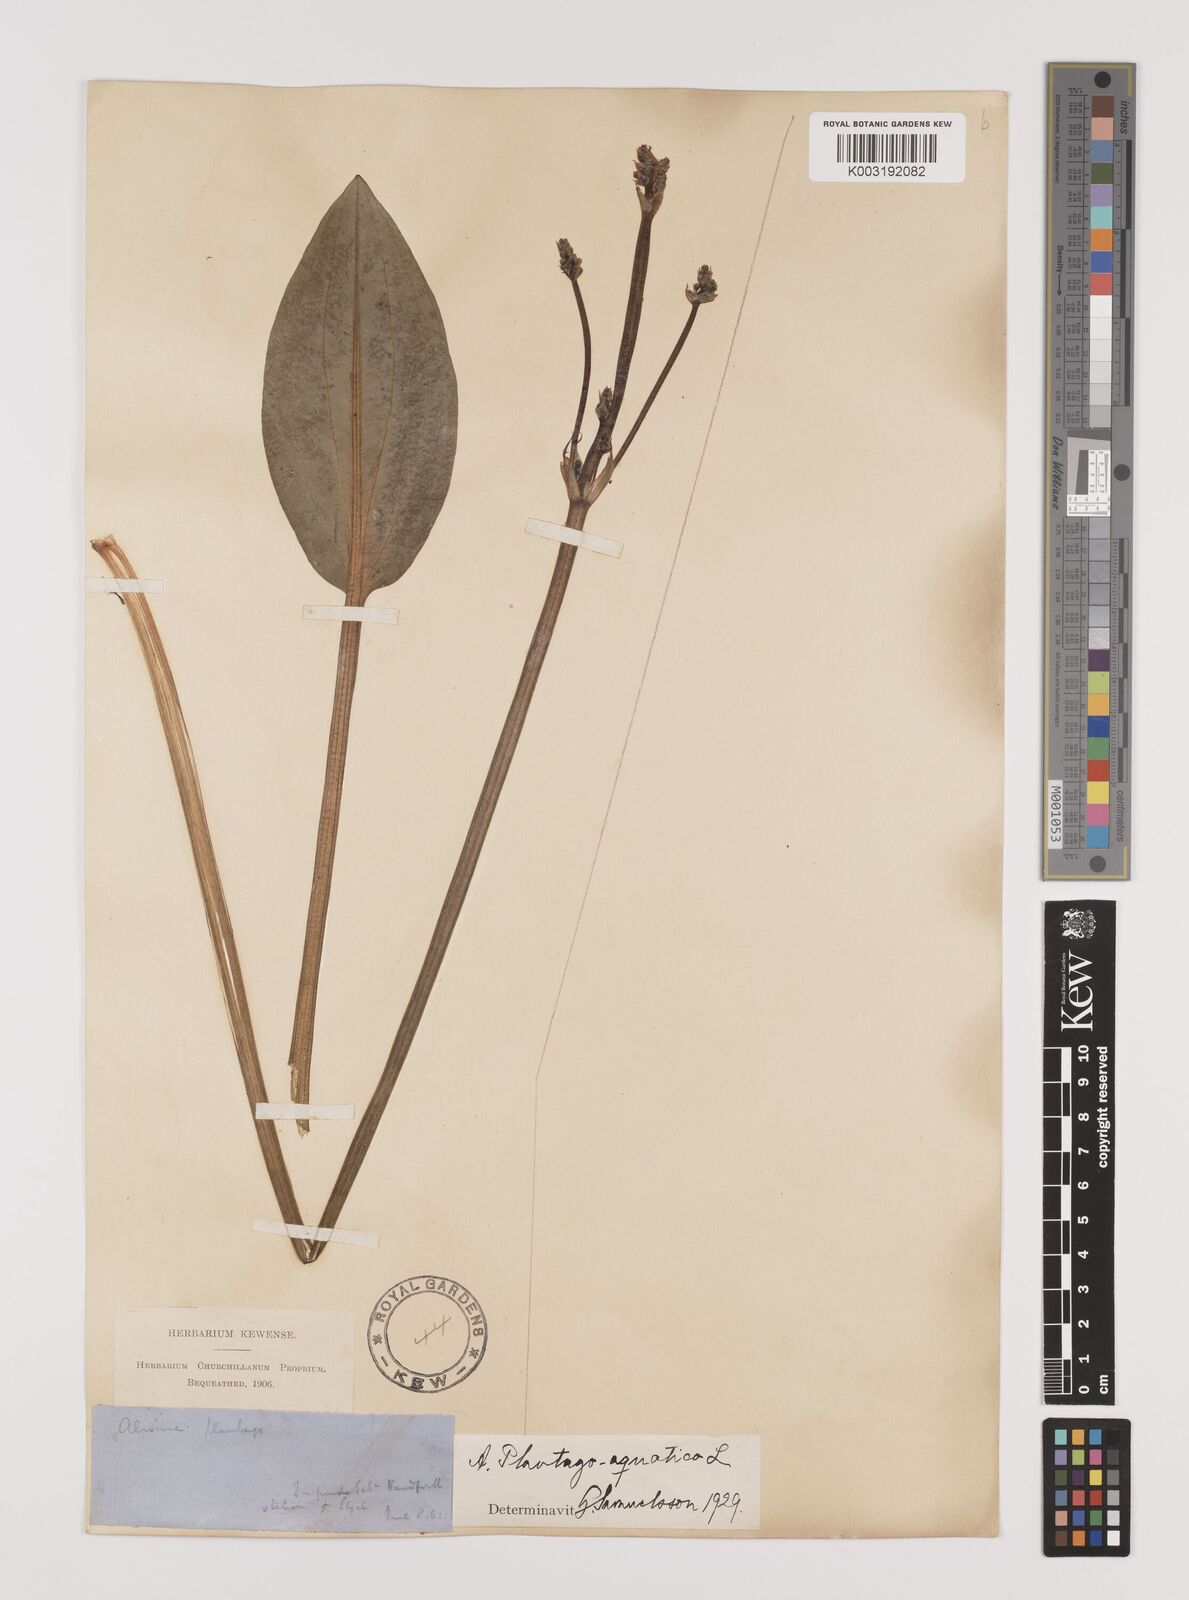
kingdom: Plantae
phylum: Tracheophyta
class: Liliopsida
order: Alismatales
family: Alismataceae
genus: Alisma
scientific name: Alisma plantago-aquatica
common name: Water-plantain
